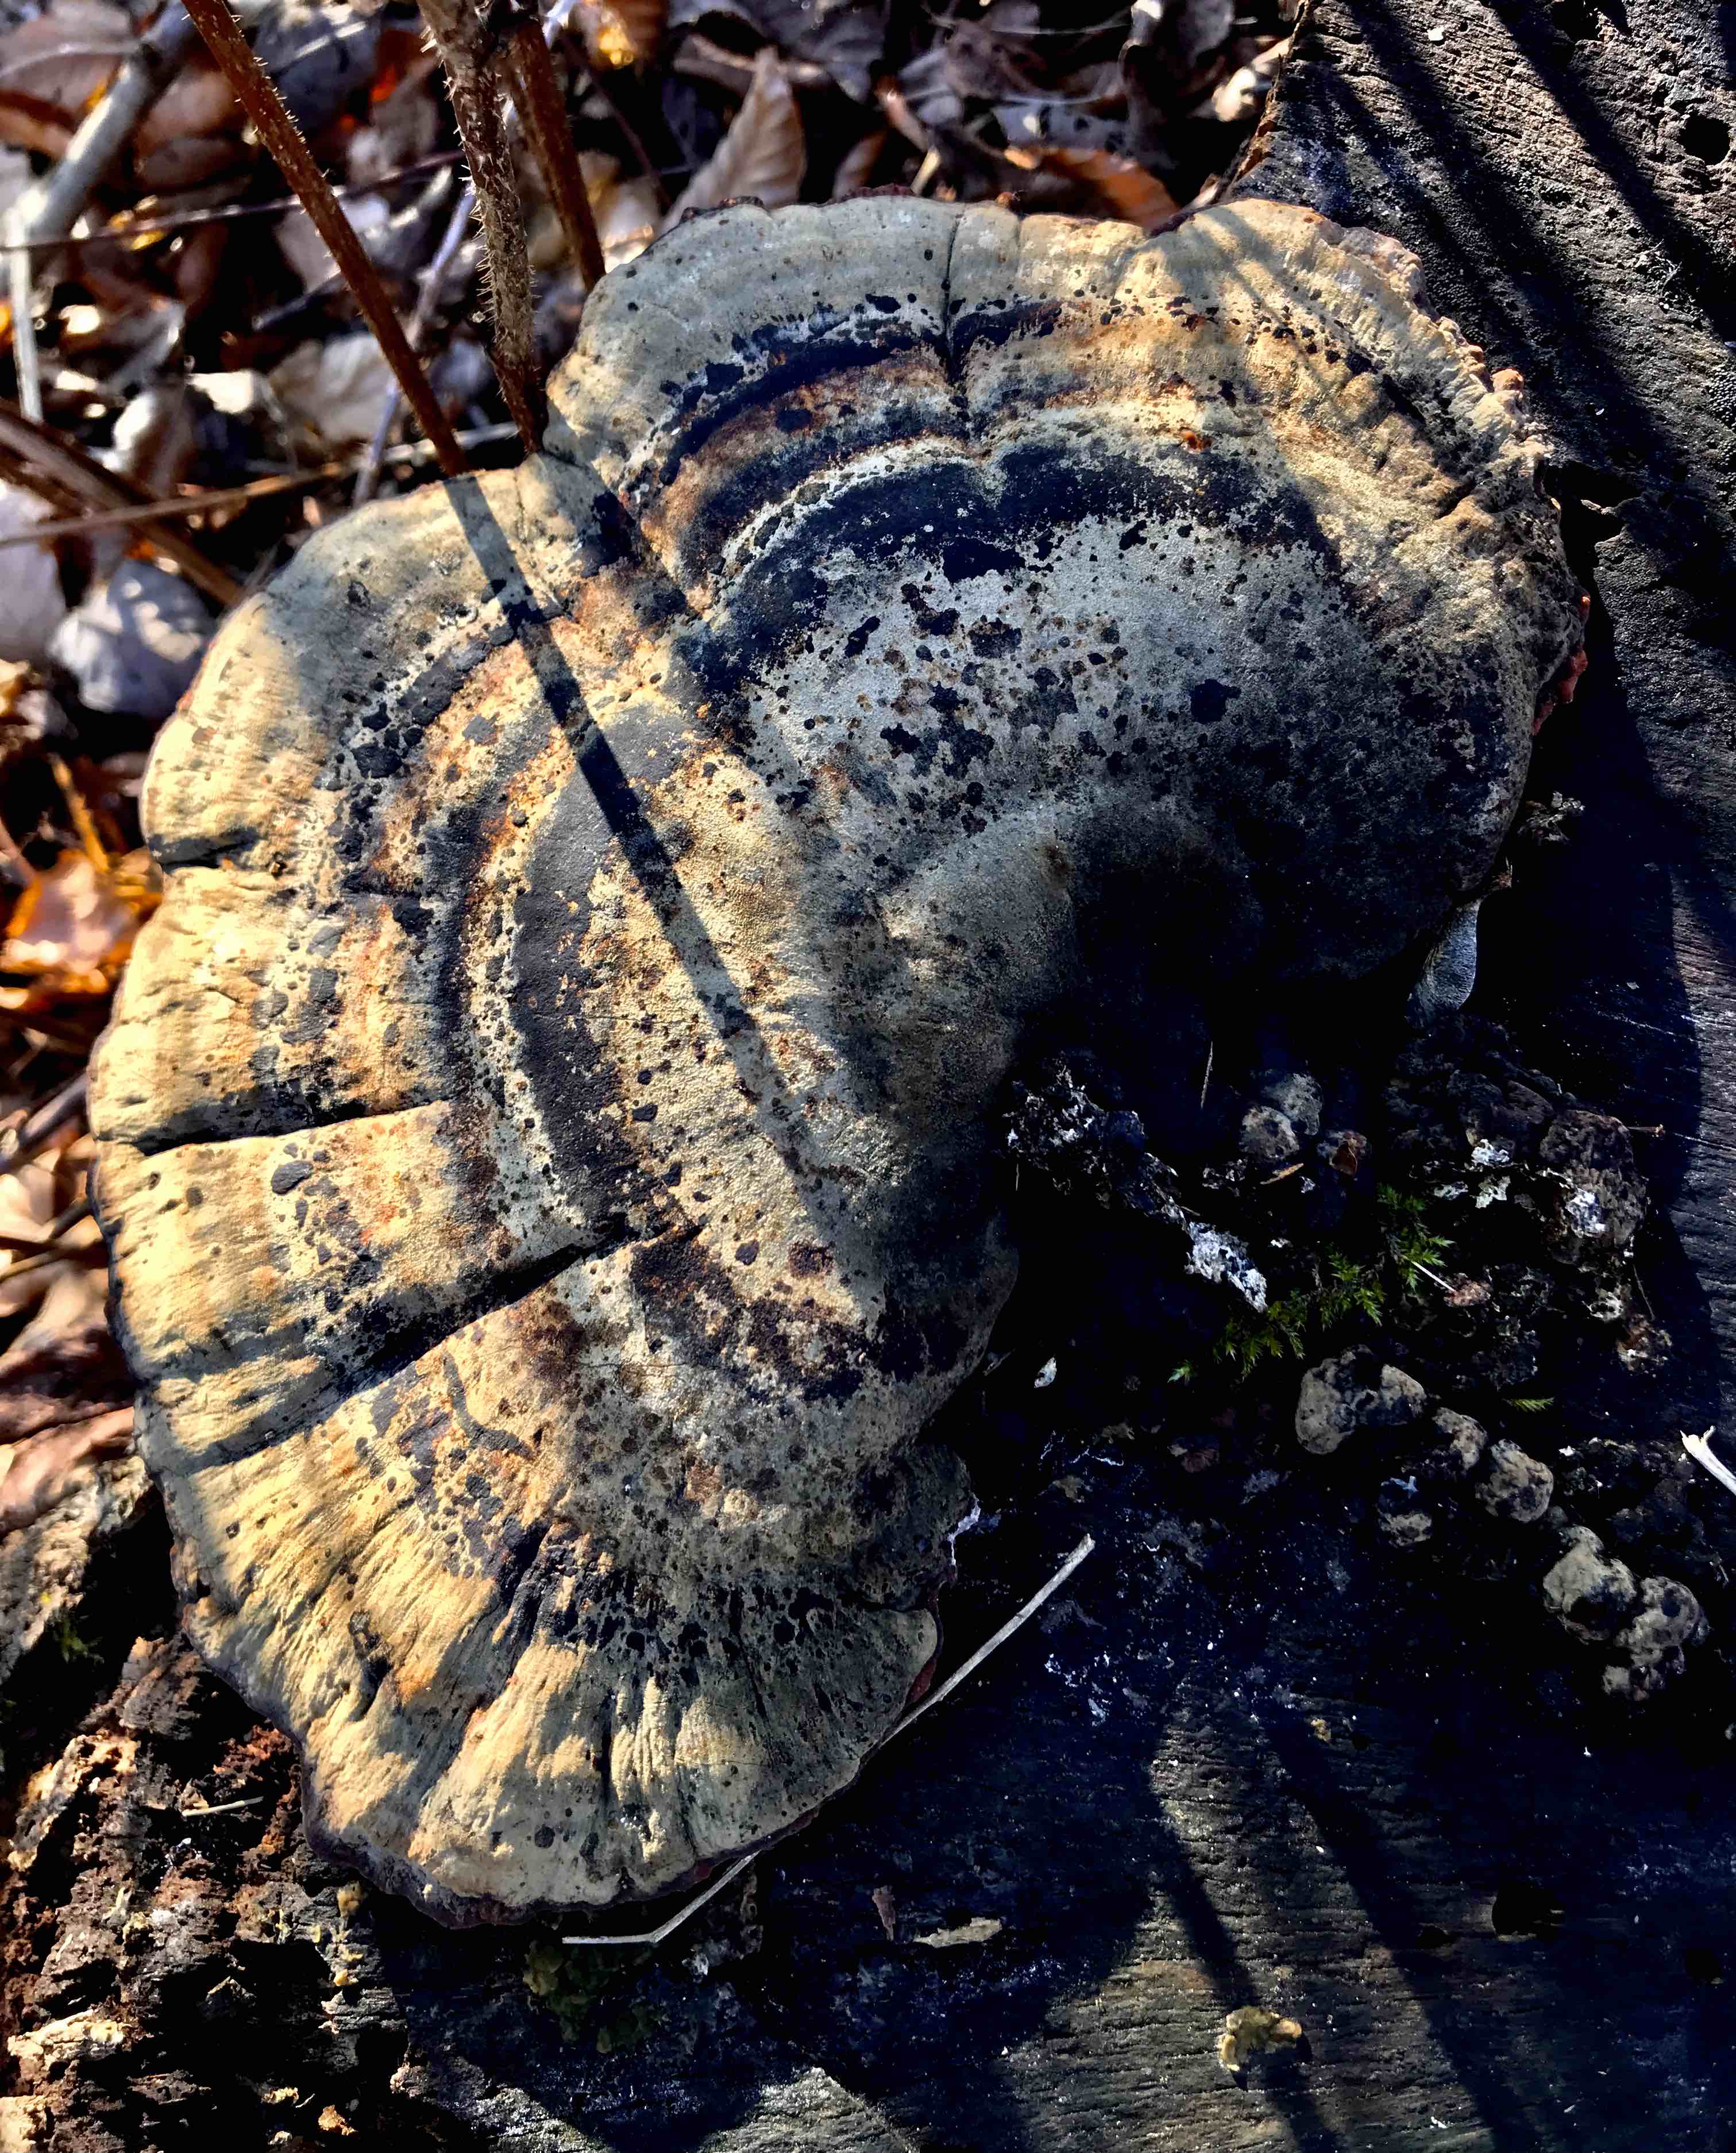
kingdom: Fungi
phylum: Basidiomycota
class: Agaricomycetes
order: Polyporales
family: Ischnodermataceae
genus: Ischnoderma
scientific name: Ischnoderma resinosum
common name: løv-tjæreporesvamp
